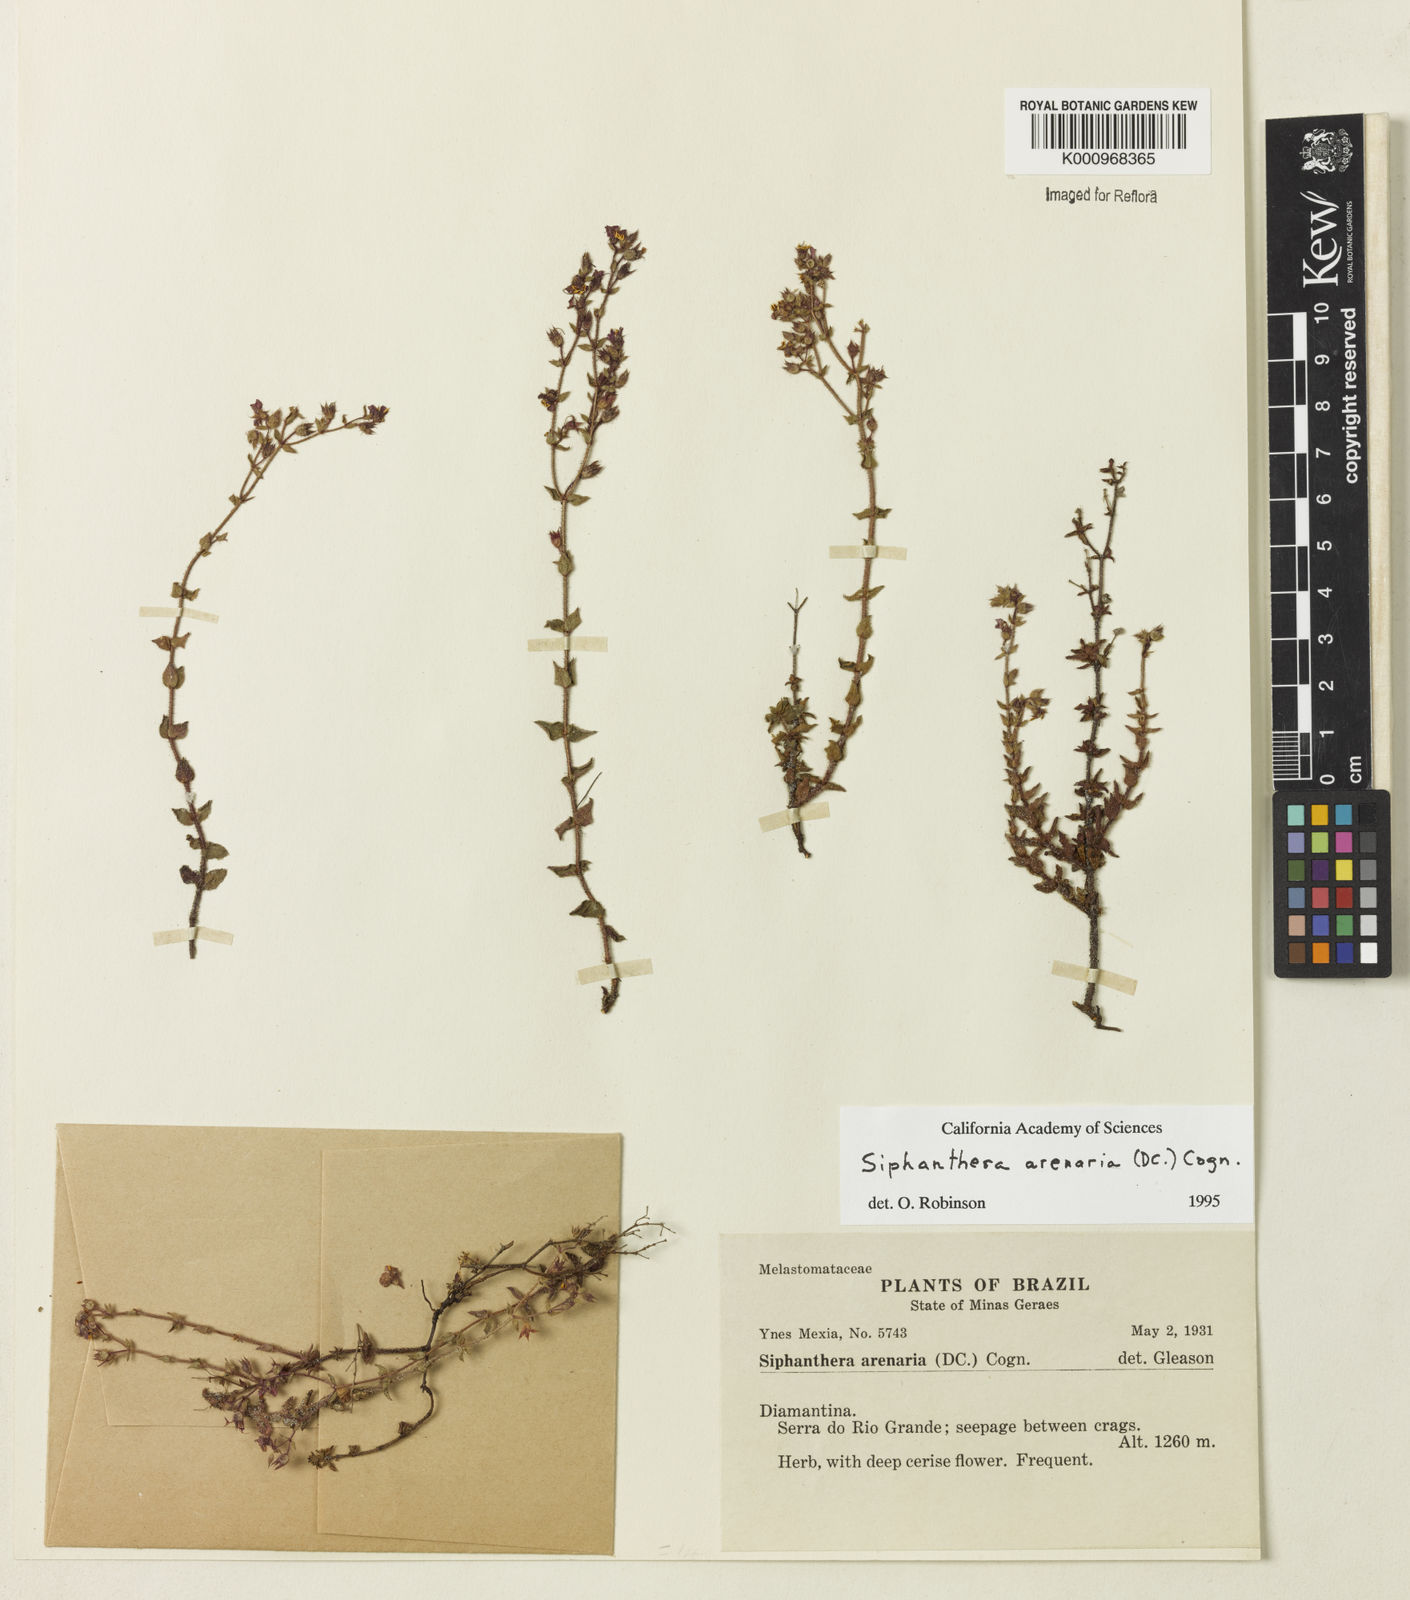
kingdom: Plantae
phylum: Tracheophyta
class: Magnoliopsida
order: Myrtales
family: Melastomataceae
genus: Siphanthera
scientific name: Siphanthera arenaria
